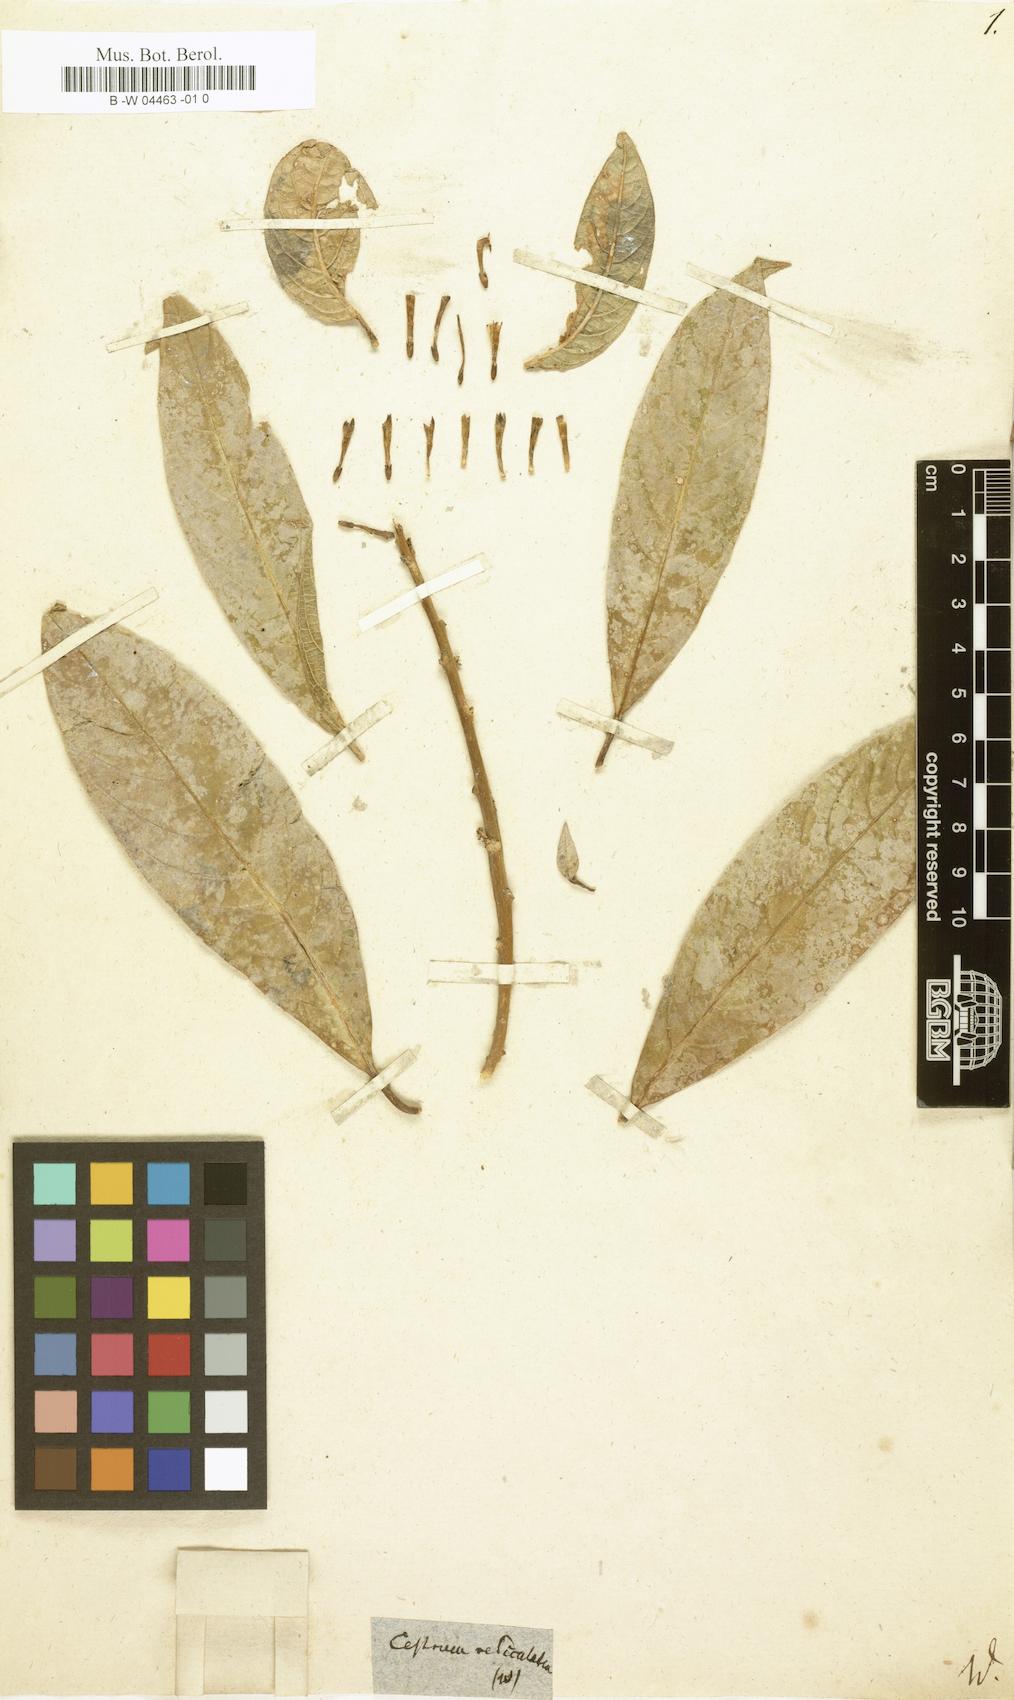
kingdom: Plantae
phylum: Tracheophyta
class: Magnoliopsida
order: Solanales
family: Solanaceae
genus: Cestrum
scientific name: Cestrum reticulatum
